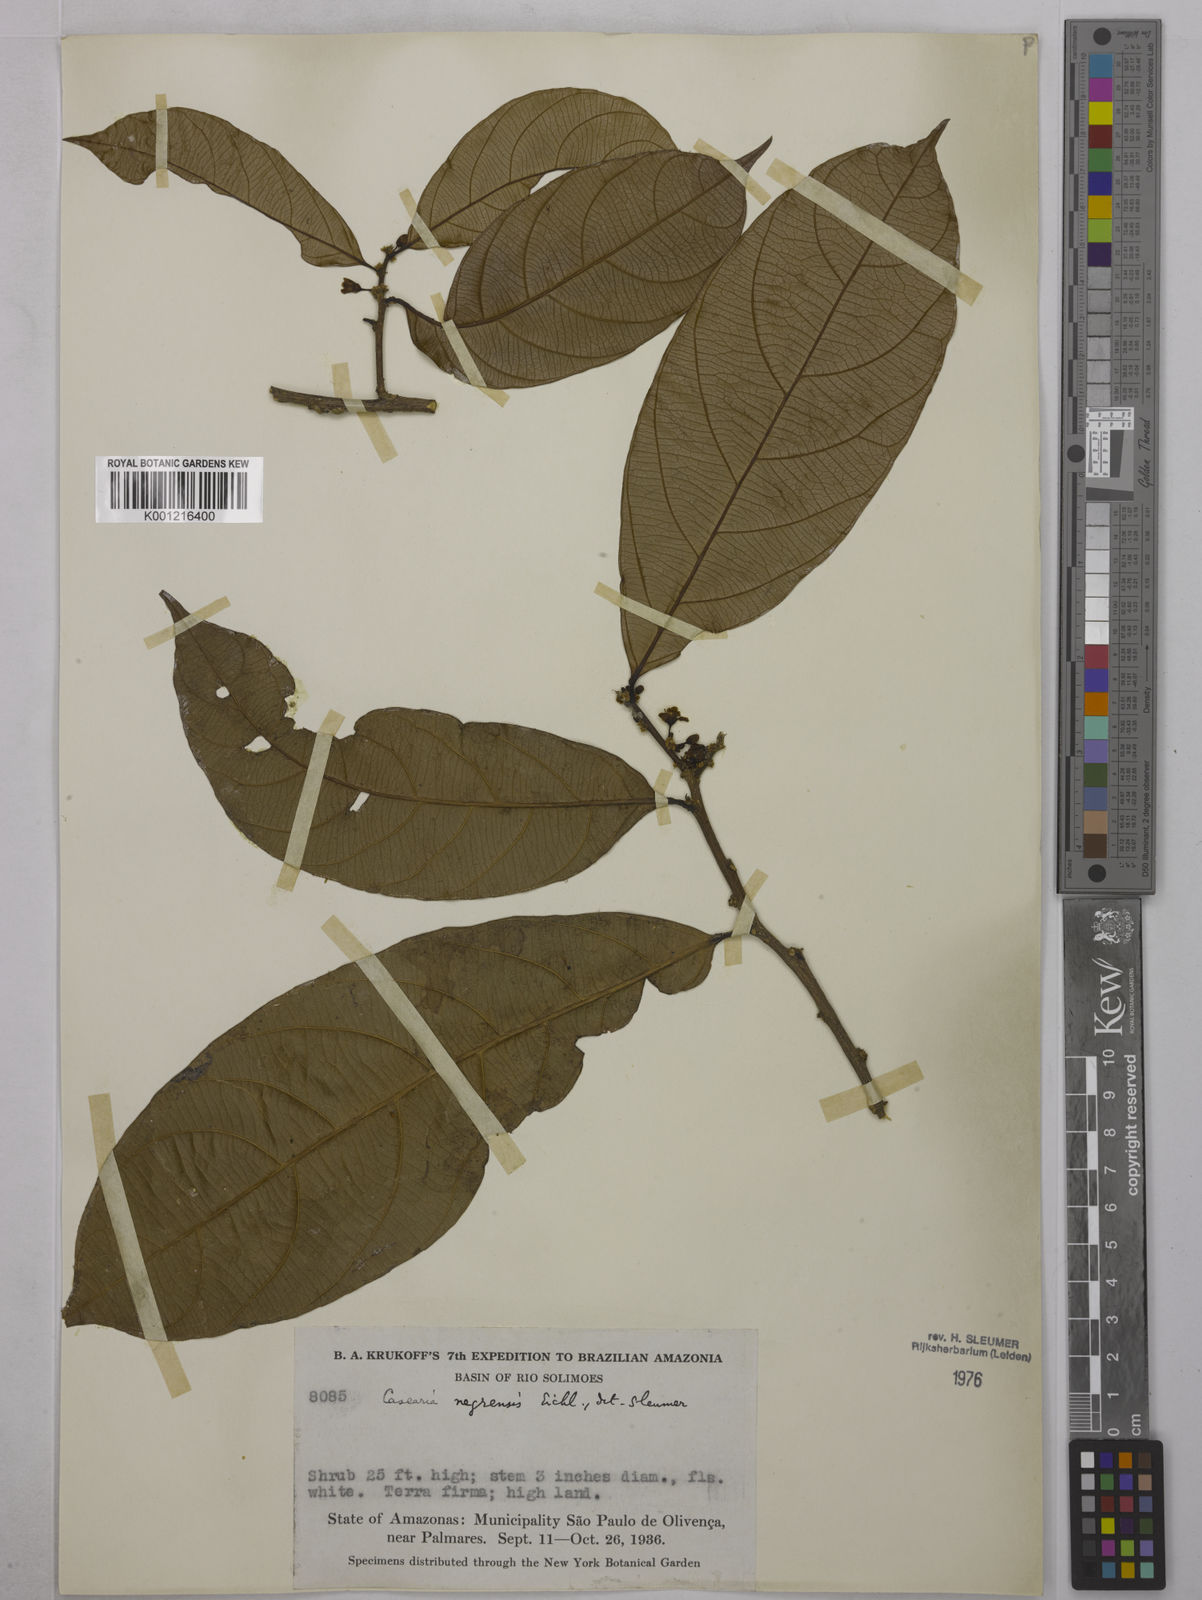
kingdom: Plantae
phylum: Tracheophyta
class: Magnoliopsida
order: Malpighiales
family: Salicaceae
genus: Casearia
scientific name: Casearia negrensis
